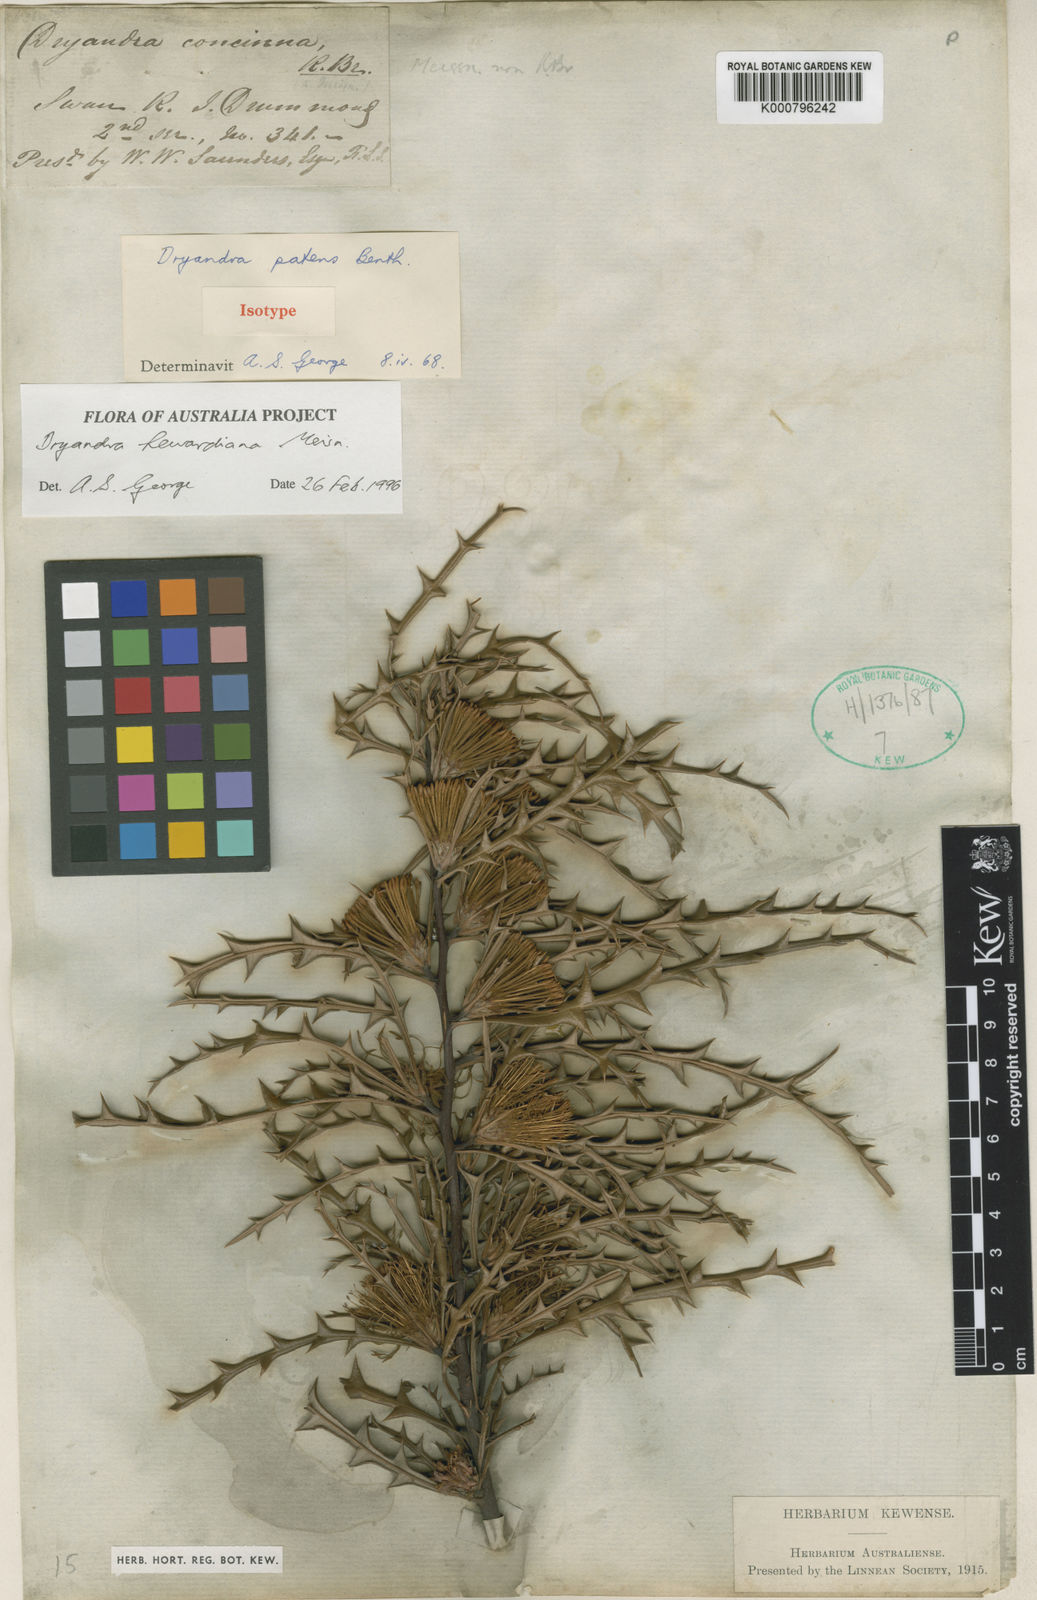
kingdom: Plantae
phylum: Tracheophyta
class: Magnoliopsida
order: Proteales
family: Proteaceae
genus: Banksia
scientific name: Banksia hewardiana
